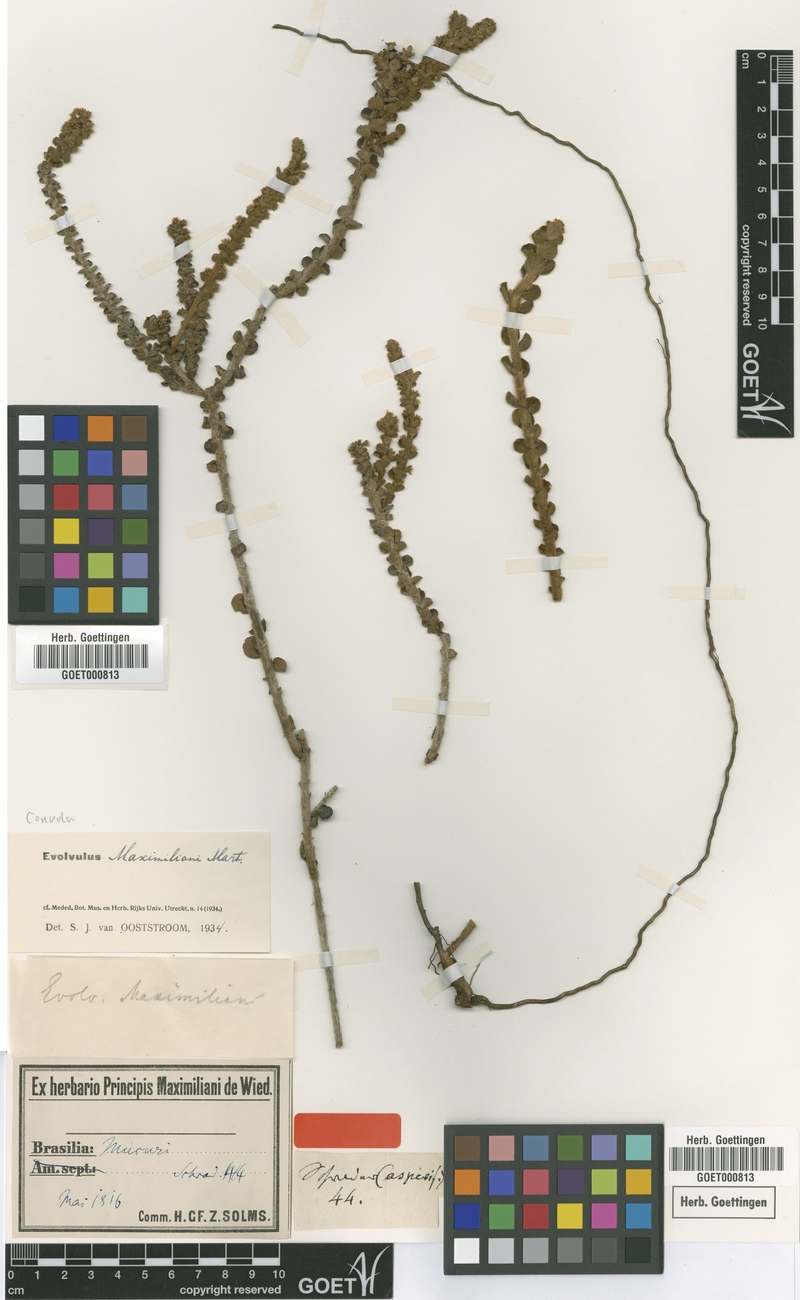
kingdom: Plantae
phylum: Tracheophyta
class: Magnoliopsida
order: Solanales
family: Convolvulaceae
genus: Evolvulus
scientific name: Evolvulus maximiliani
